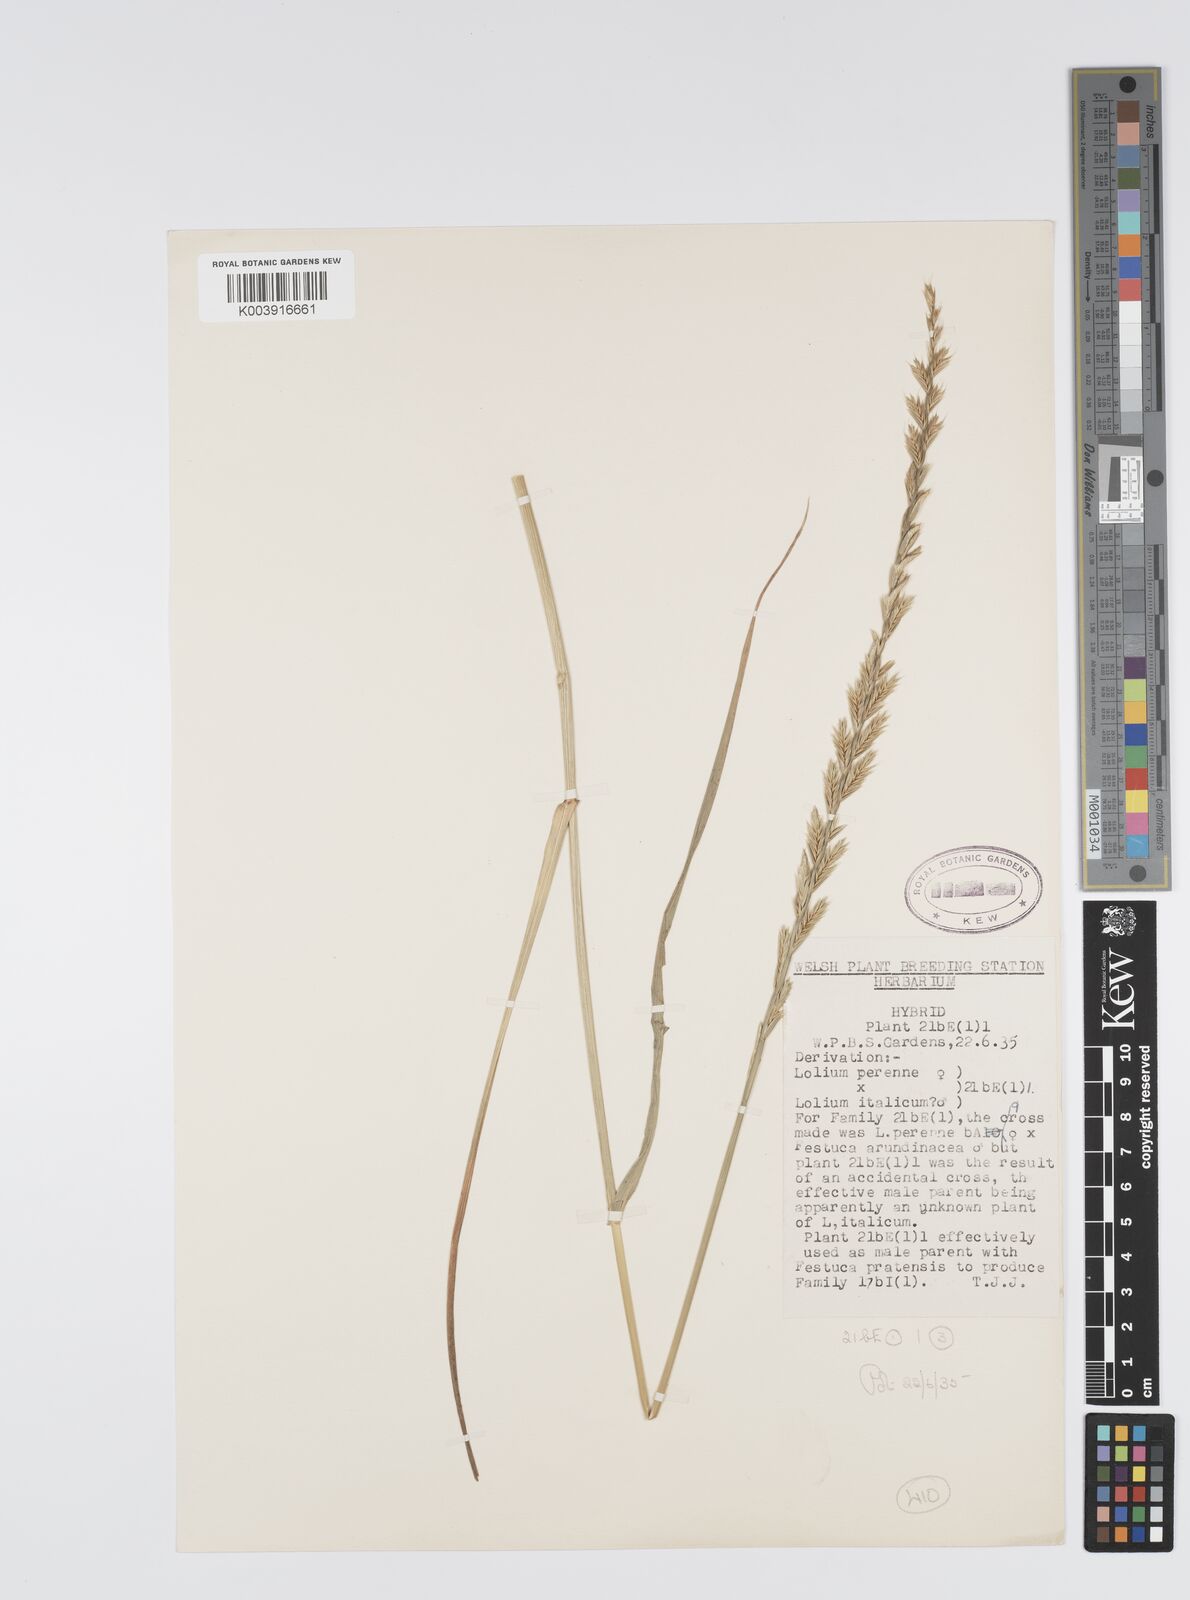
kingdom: Plantae
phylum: Tracheophyta
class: Liliopsida
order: Poales
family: Poaceae
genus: Lolium
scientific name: Lolium perenne
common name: Perennial ryegrass
